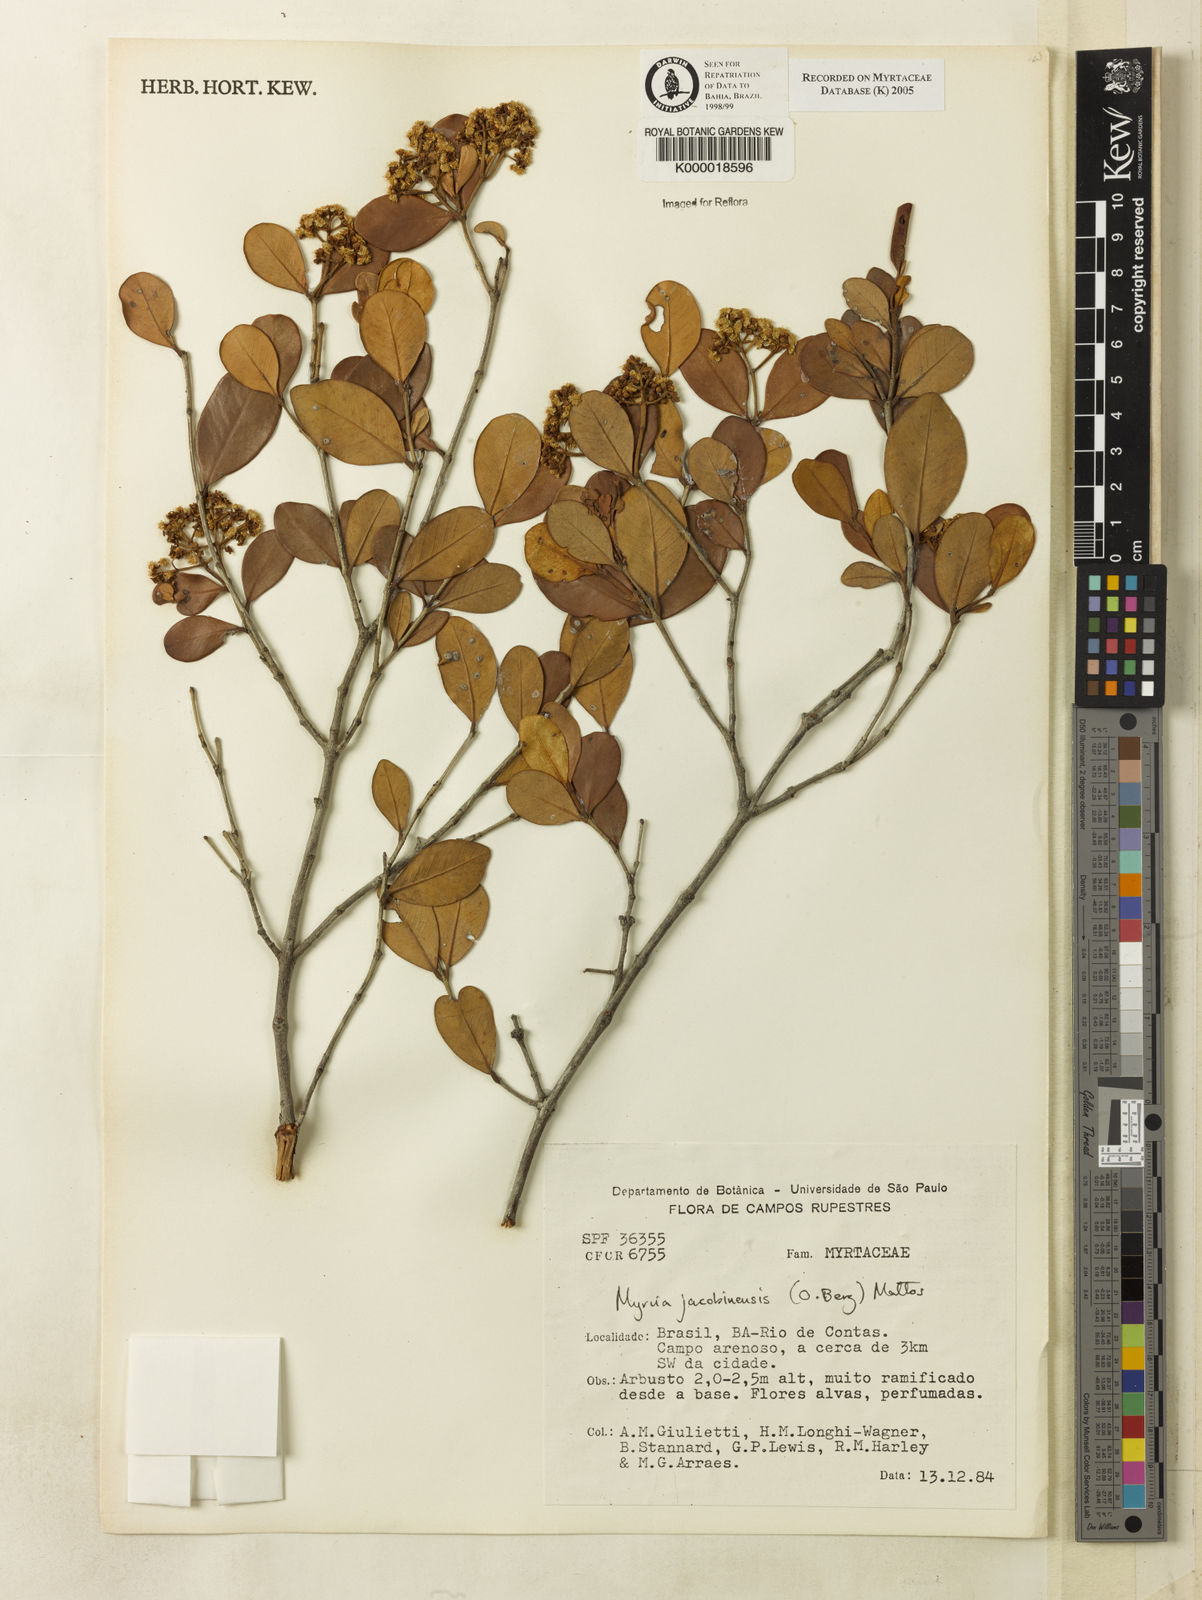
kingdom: Plantae
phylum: Tracheophyta
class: Magnoliopsida
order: Myrtales
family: Myrtaceae
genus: Myrcia
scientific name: Myrcia jacobinensis
